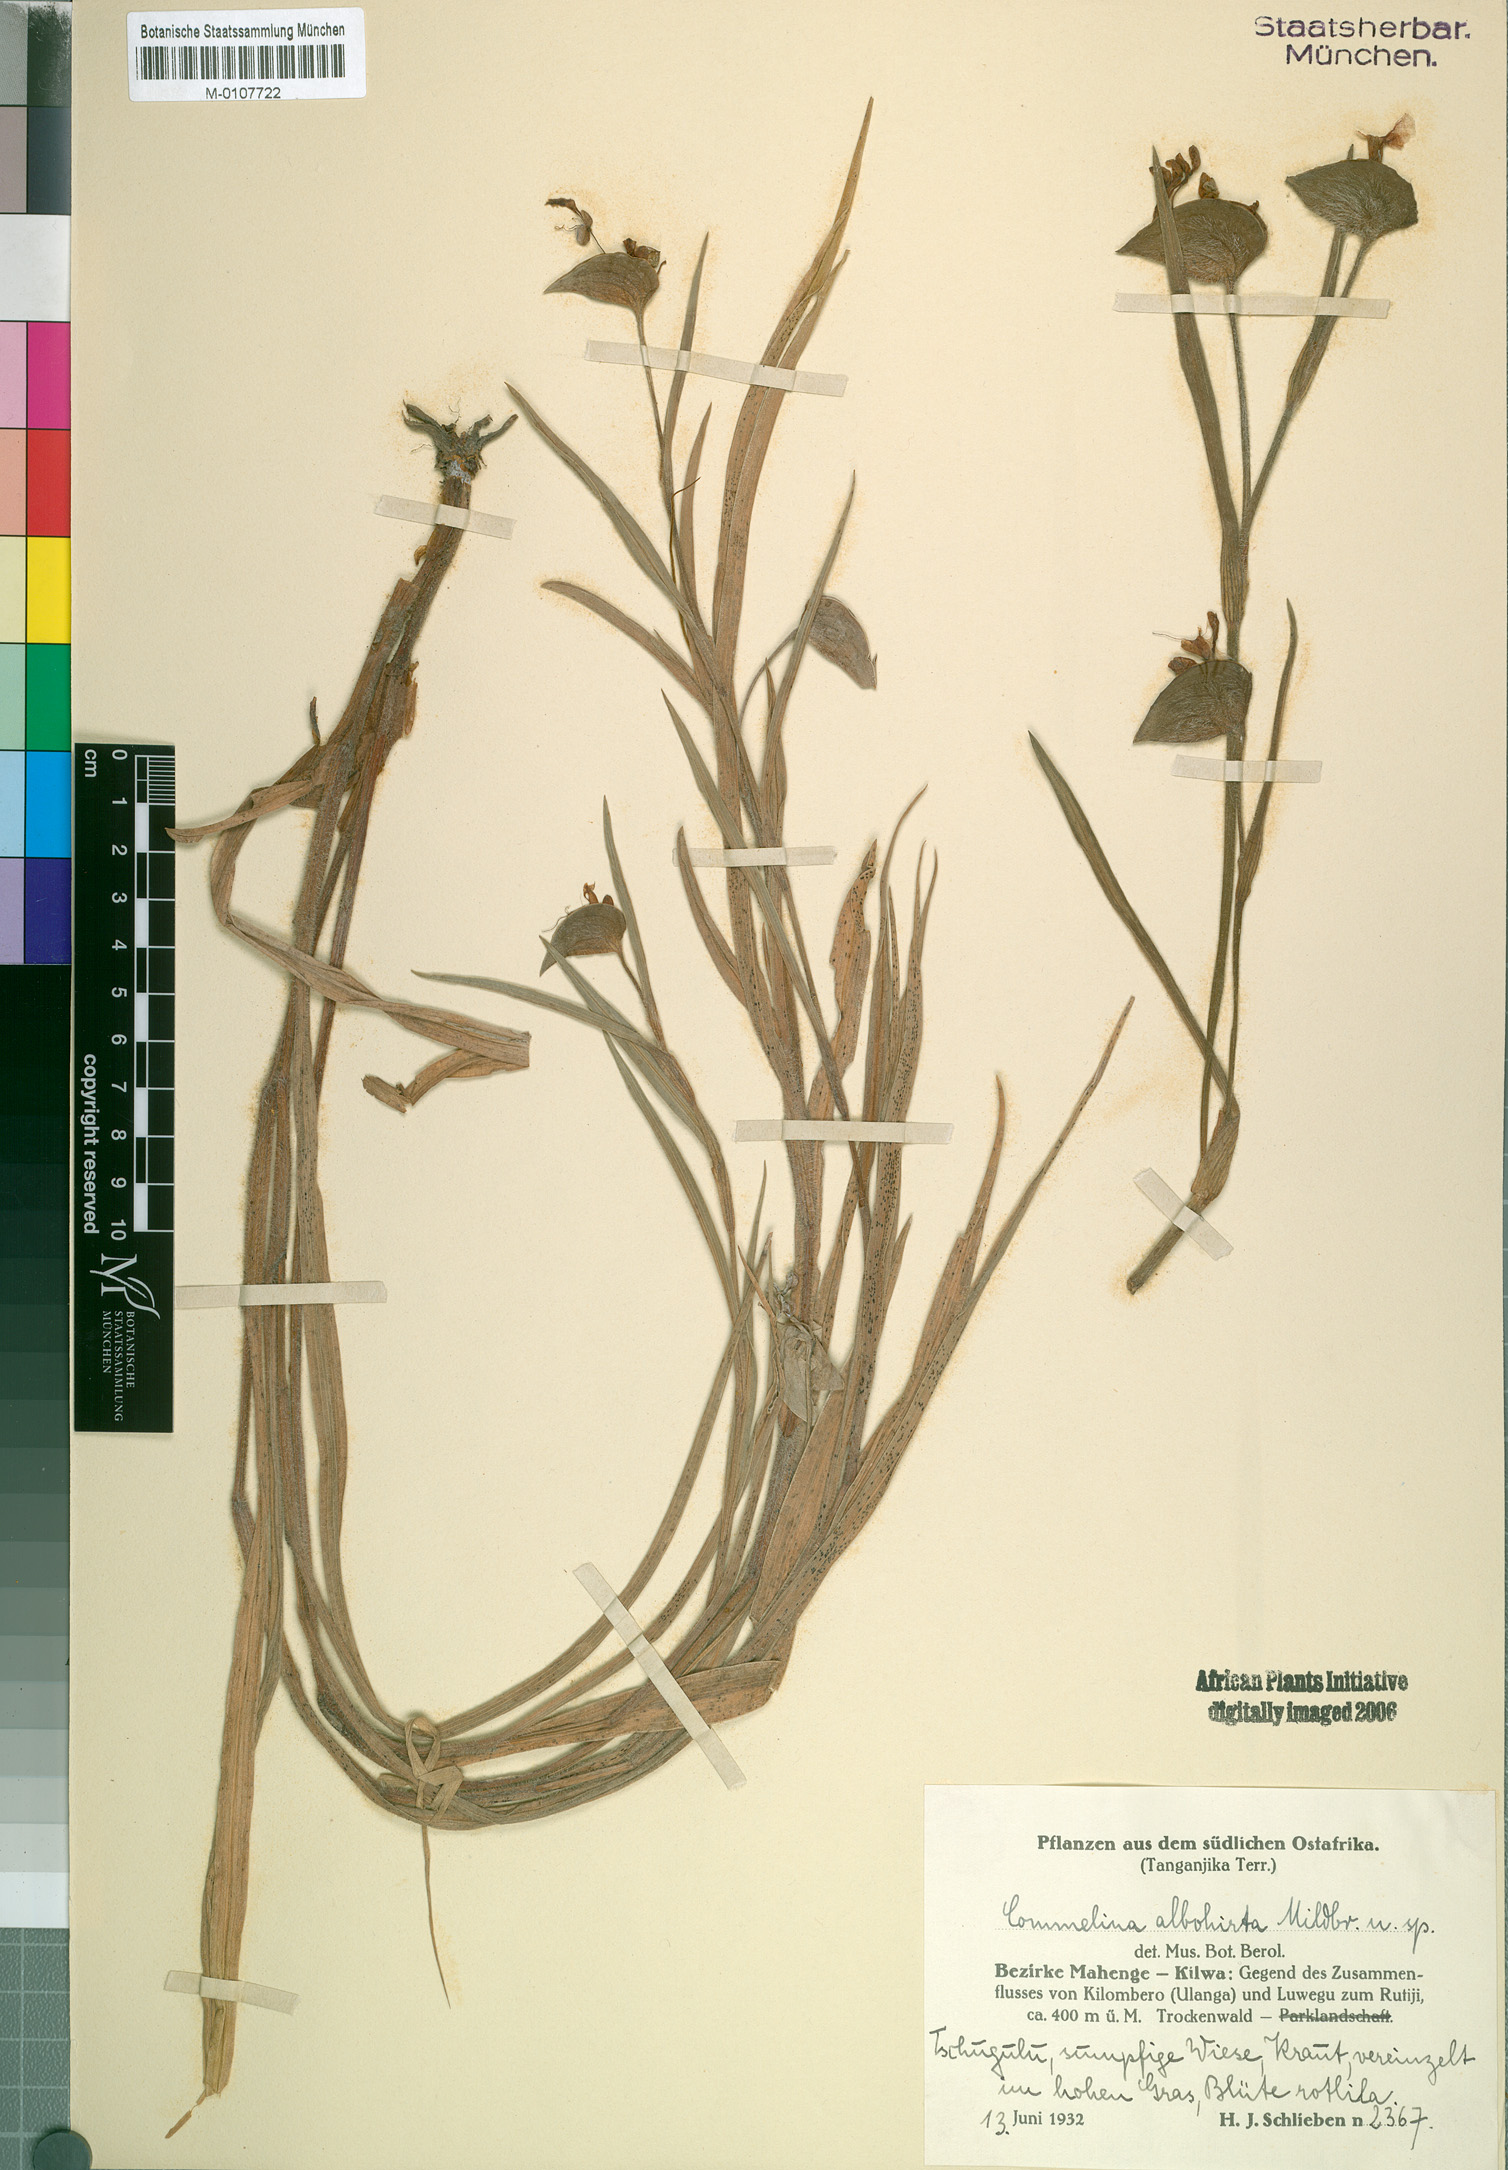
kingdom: Plantae
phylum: Tracheophyta
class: Liliopsida
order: Commelinales
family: Commelinaceae
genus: Commelina
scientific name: Commelina
